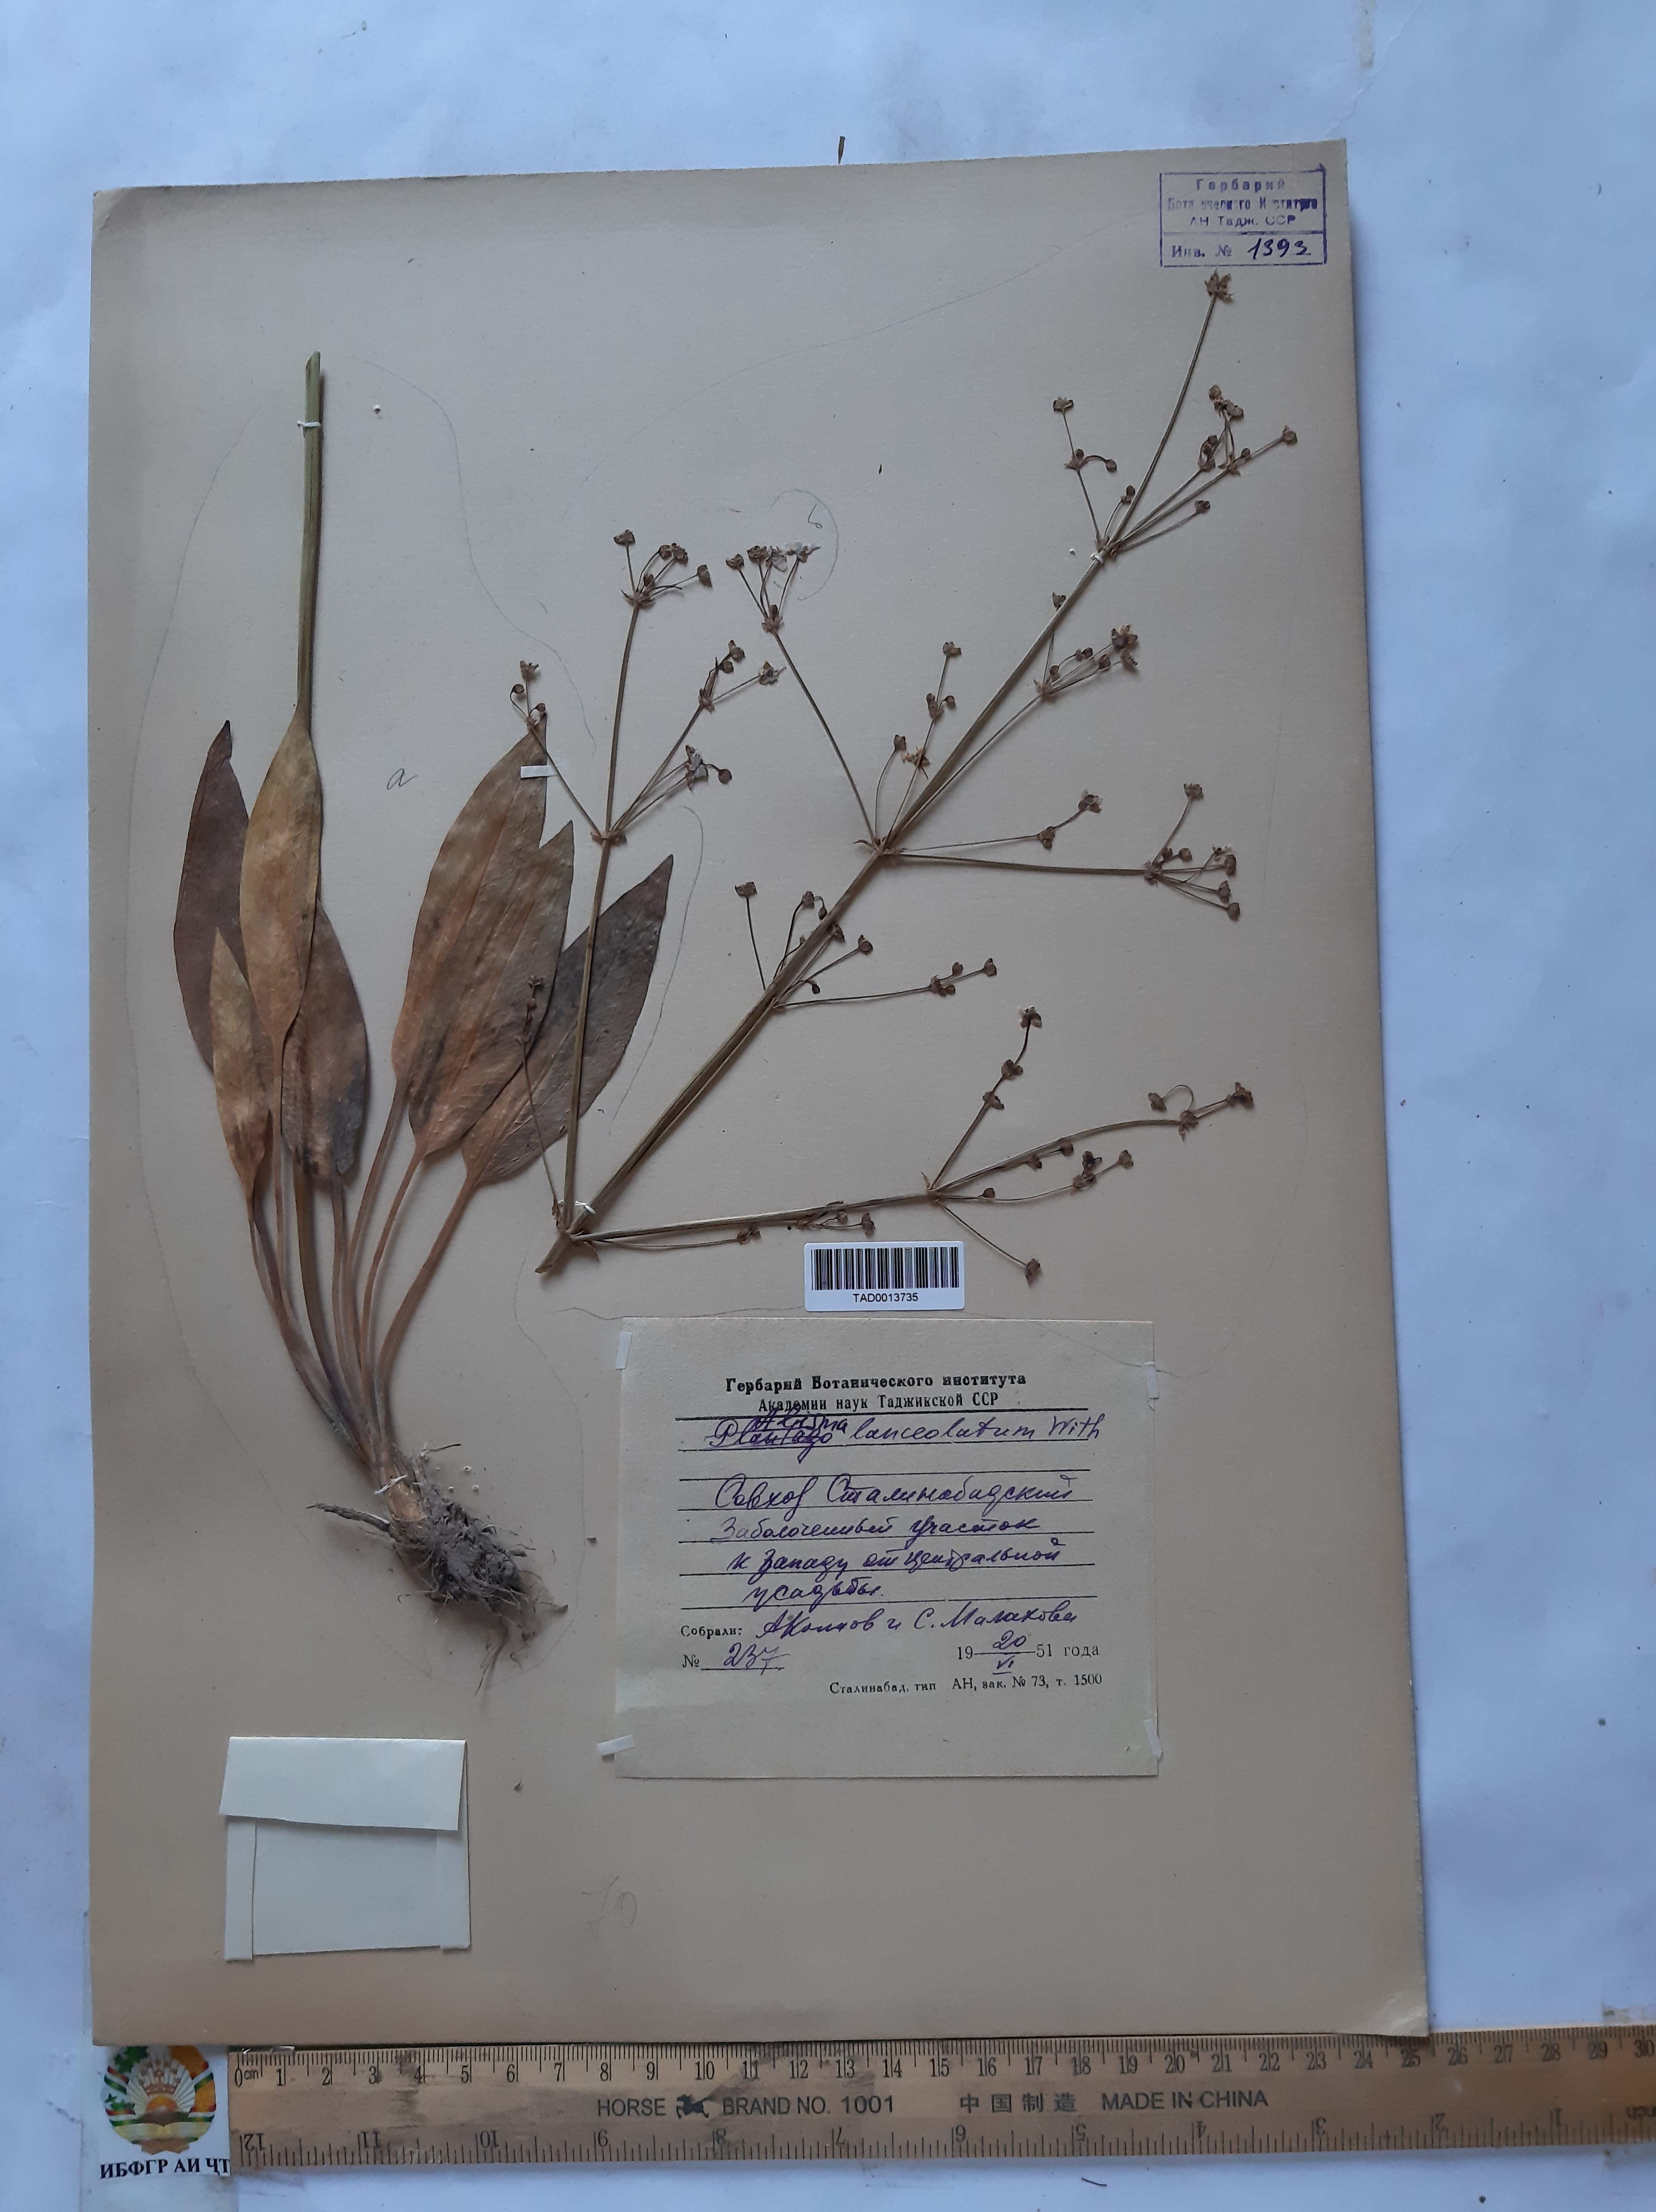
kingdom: Plantae
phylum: Tracheophyta
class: Liliopsida
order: Alismatales
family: Alismataceae
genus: Alisma
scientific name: Alisma lanceolatum
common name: Narrow-leaved water-plantain
